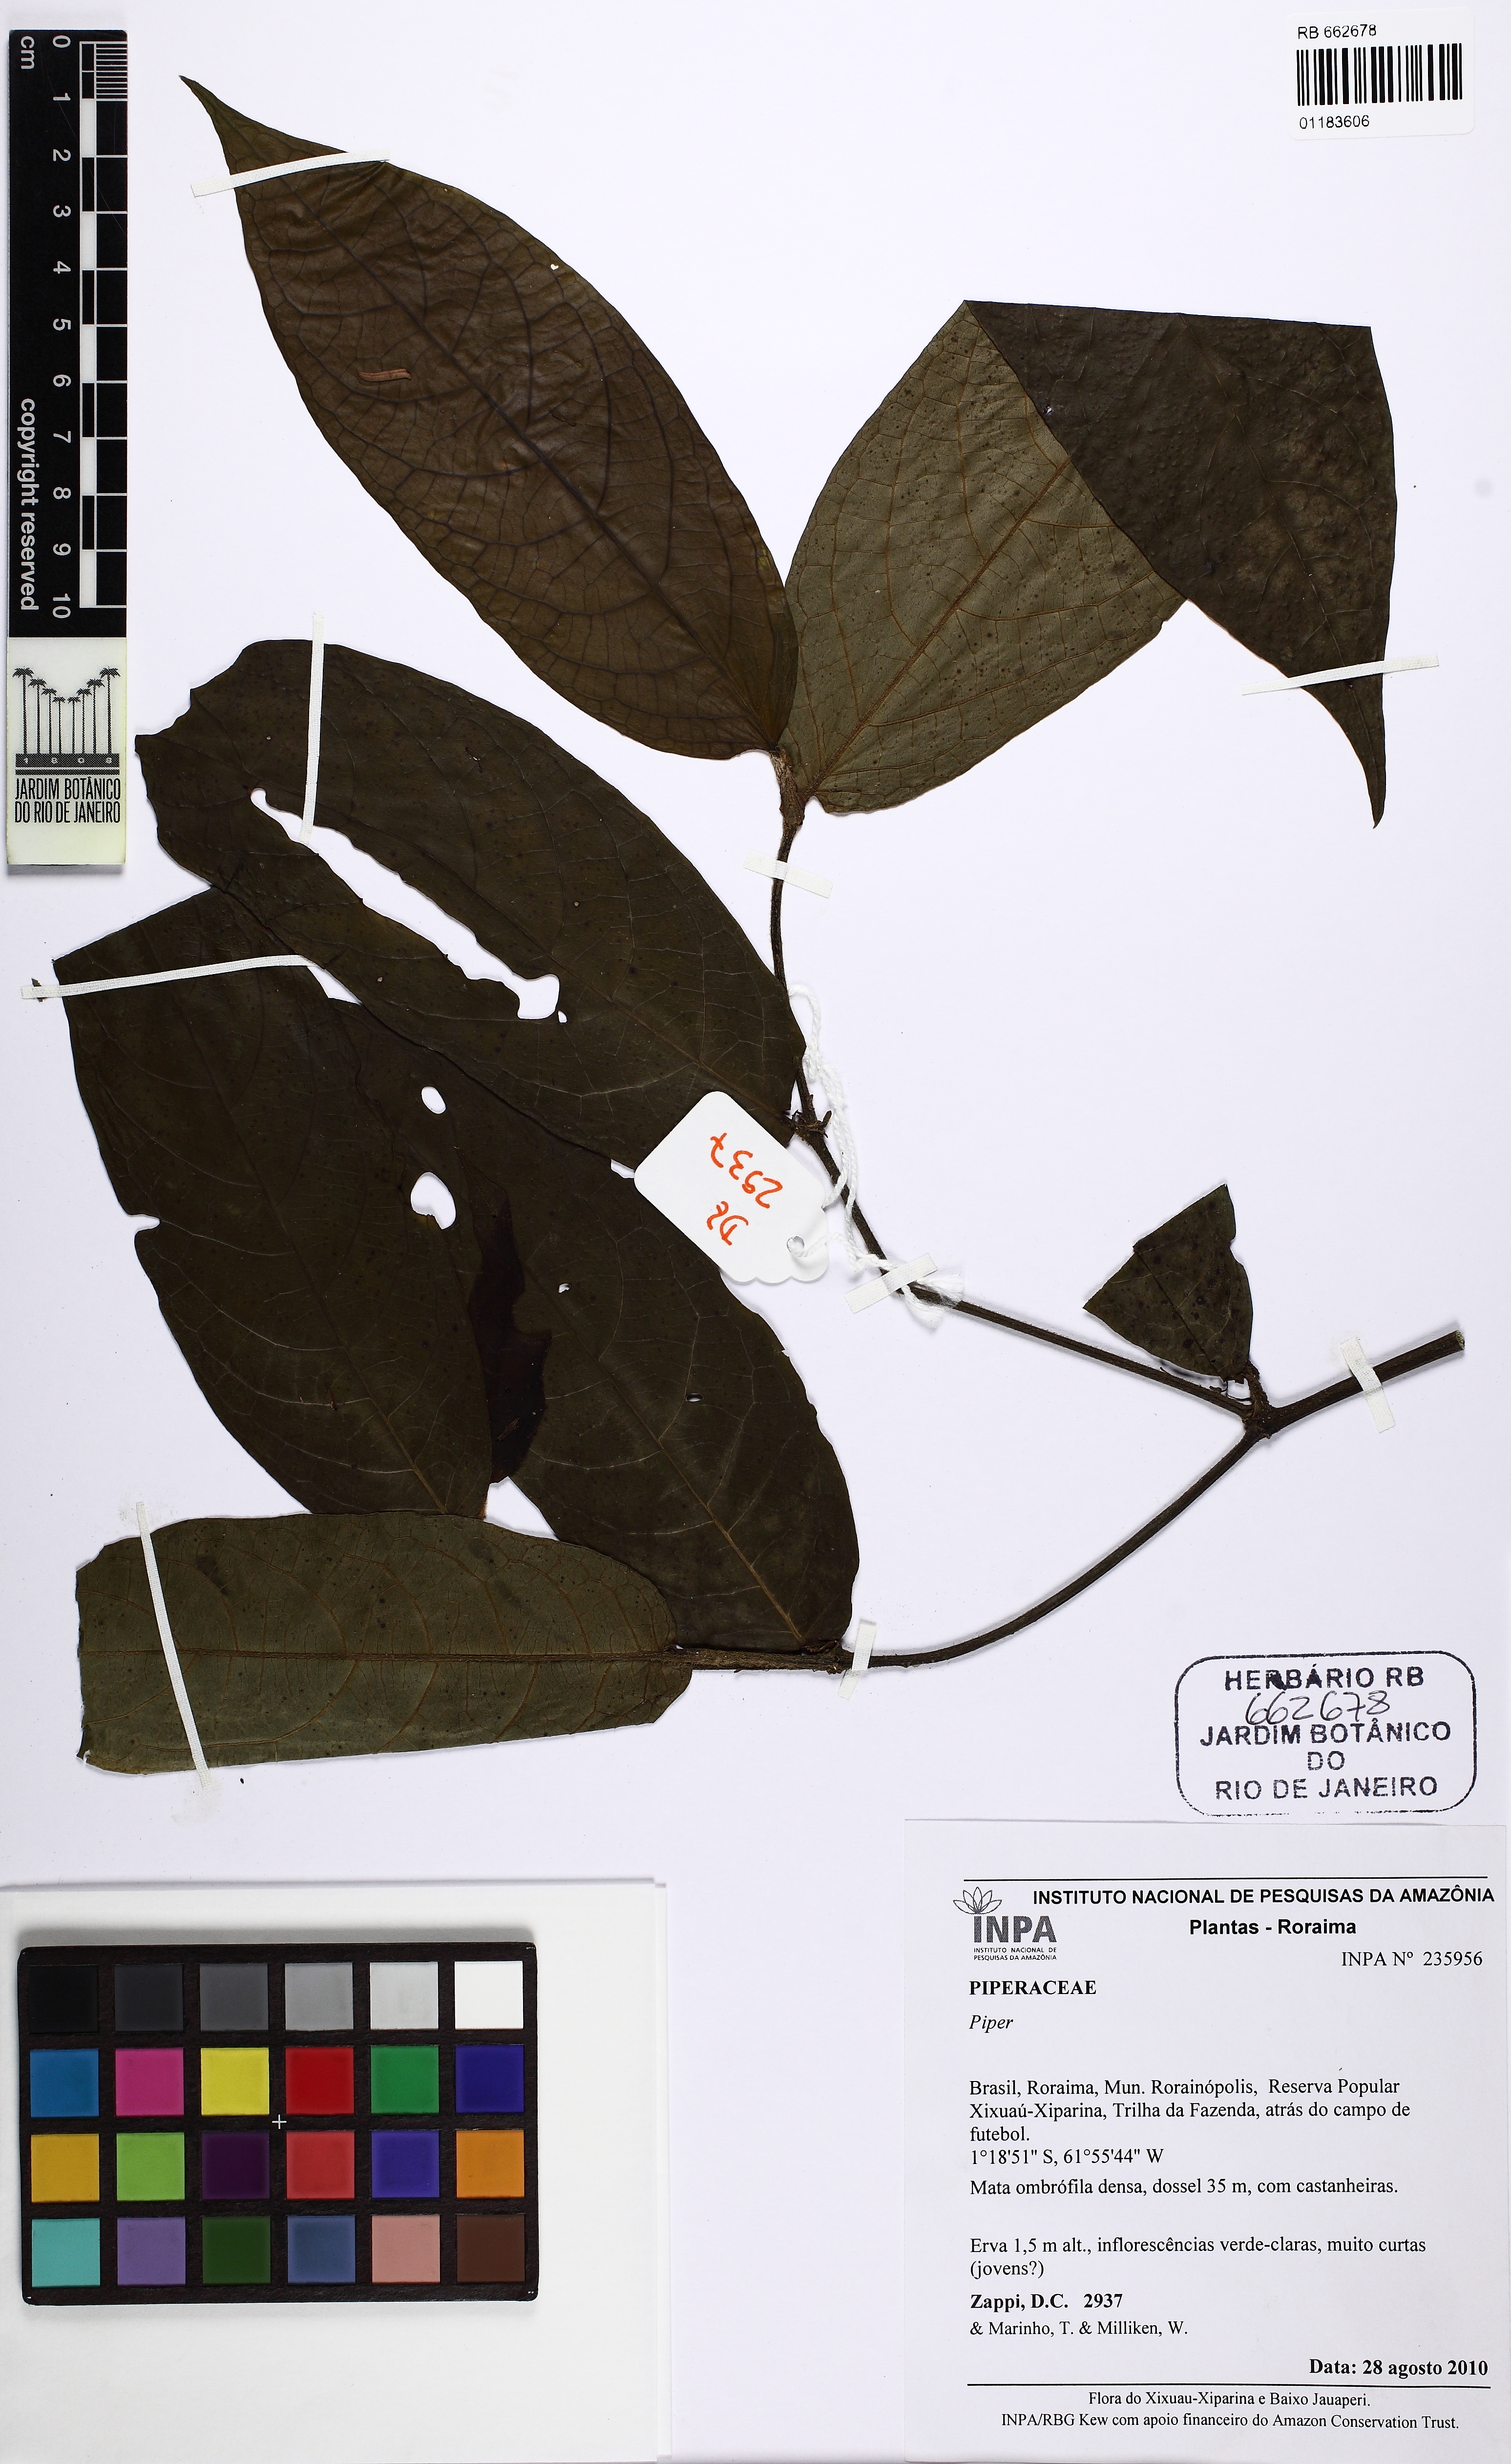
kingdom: Plantae
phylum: Tracheophyta
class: Magnoliopsida
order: Piperales
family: Piperaceae
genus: Piper
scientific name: Piper
